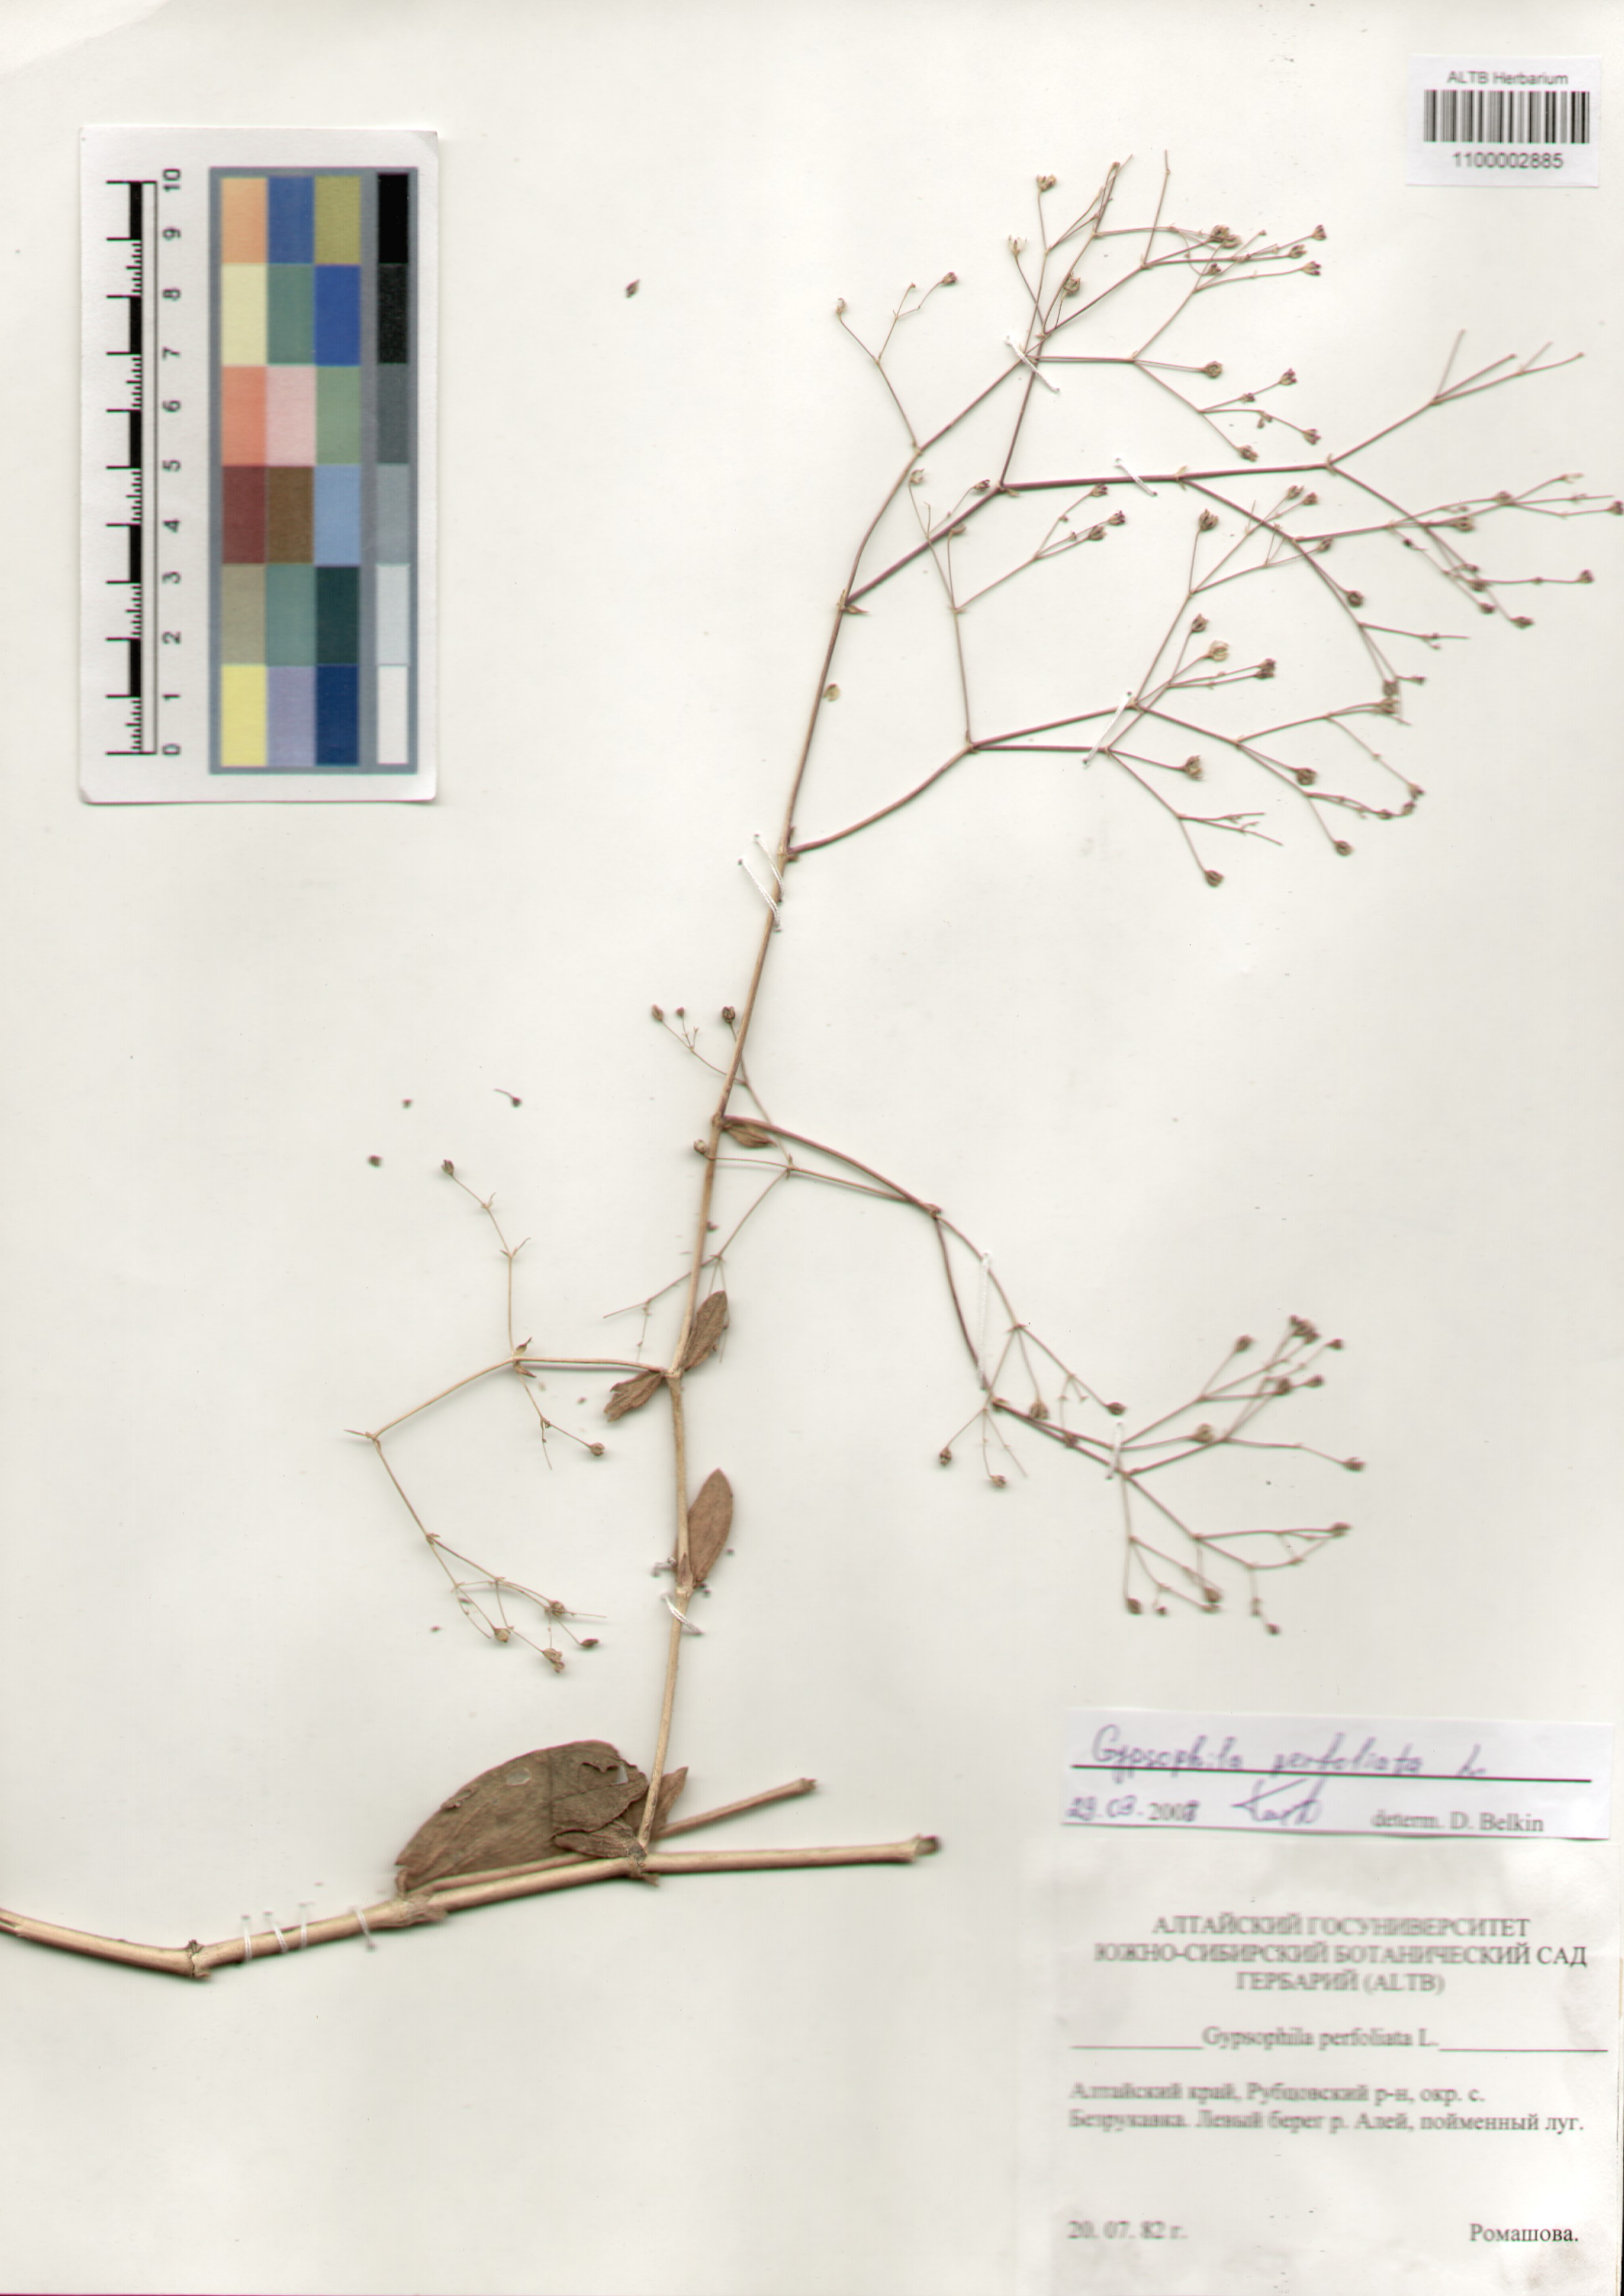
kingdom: Plantae
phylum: Tracheophyta
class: Magnoliopsida
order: Caryophyllales
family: Caryophyllaceae
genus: Gypsophila
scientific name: Gypsophila perfoliata
